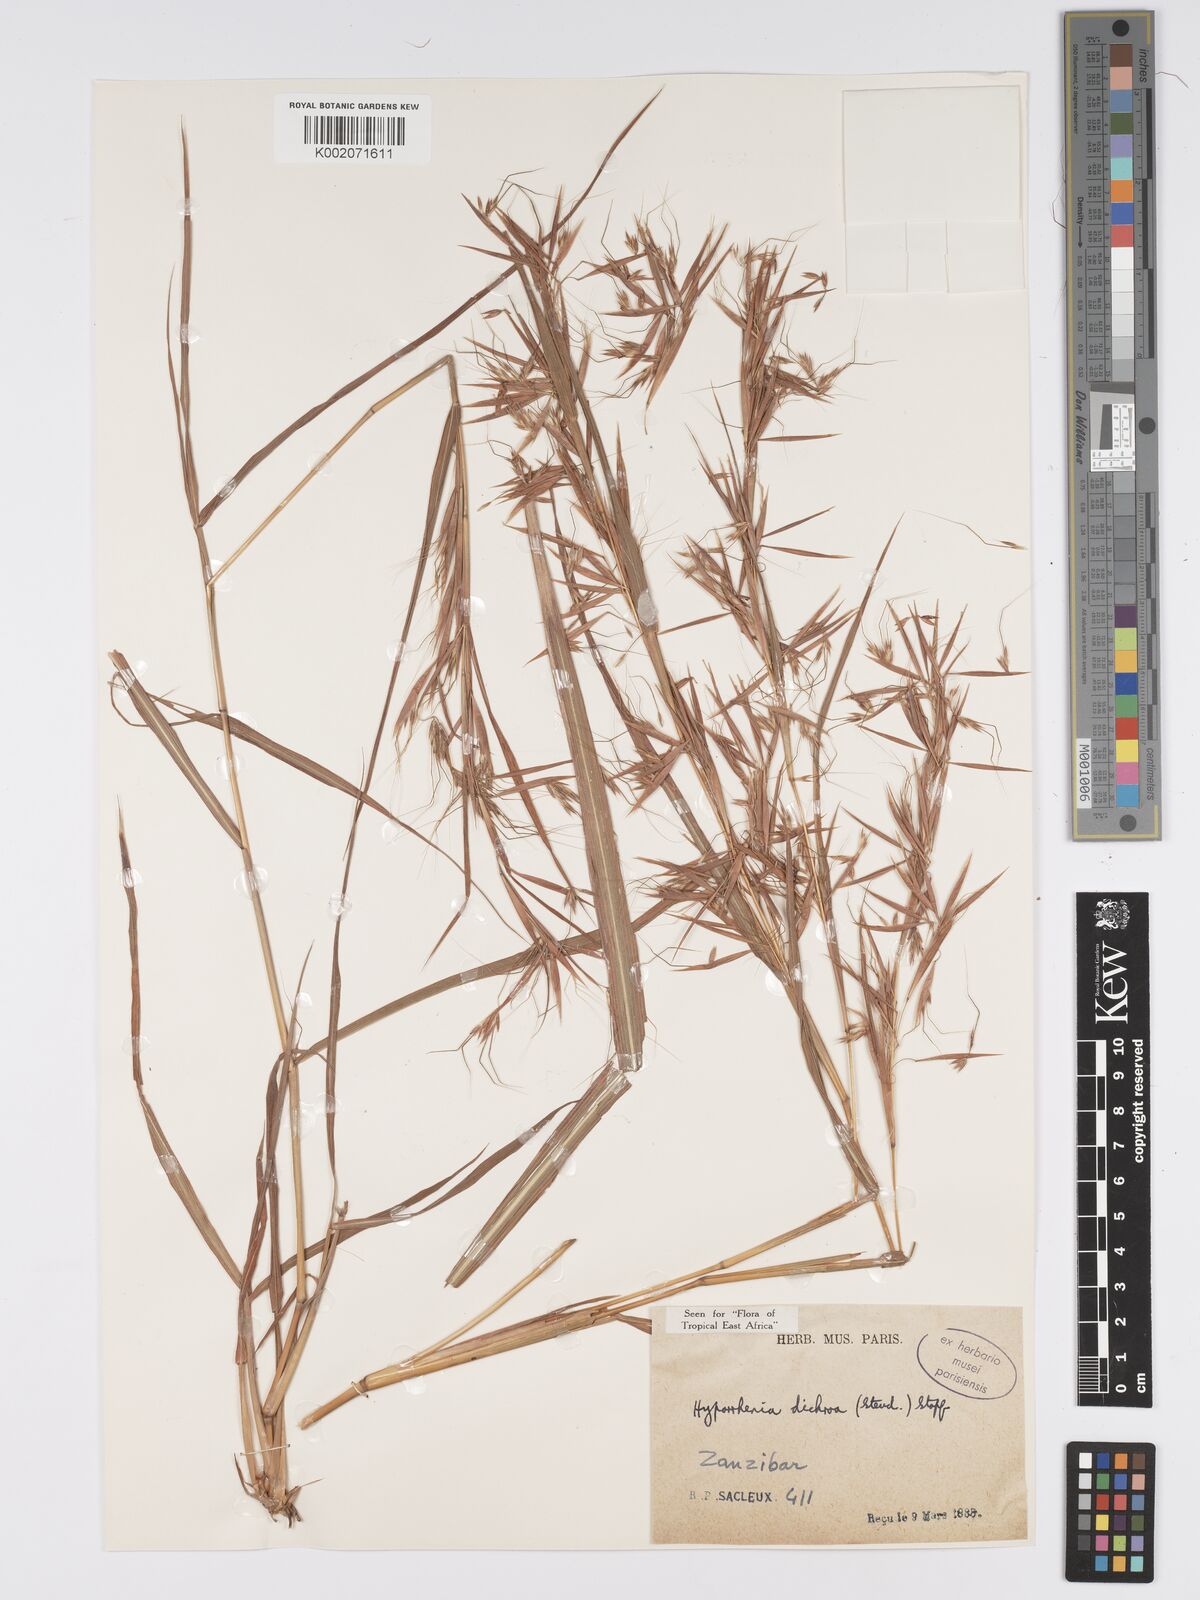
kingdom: Plantae
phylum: Tracheophyta
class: Liliopsida
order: Poales
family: Poaceae
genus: Hyparrhenia
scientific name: Hyparrhenia dichroa
